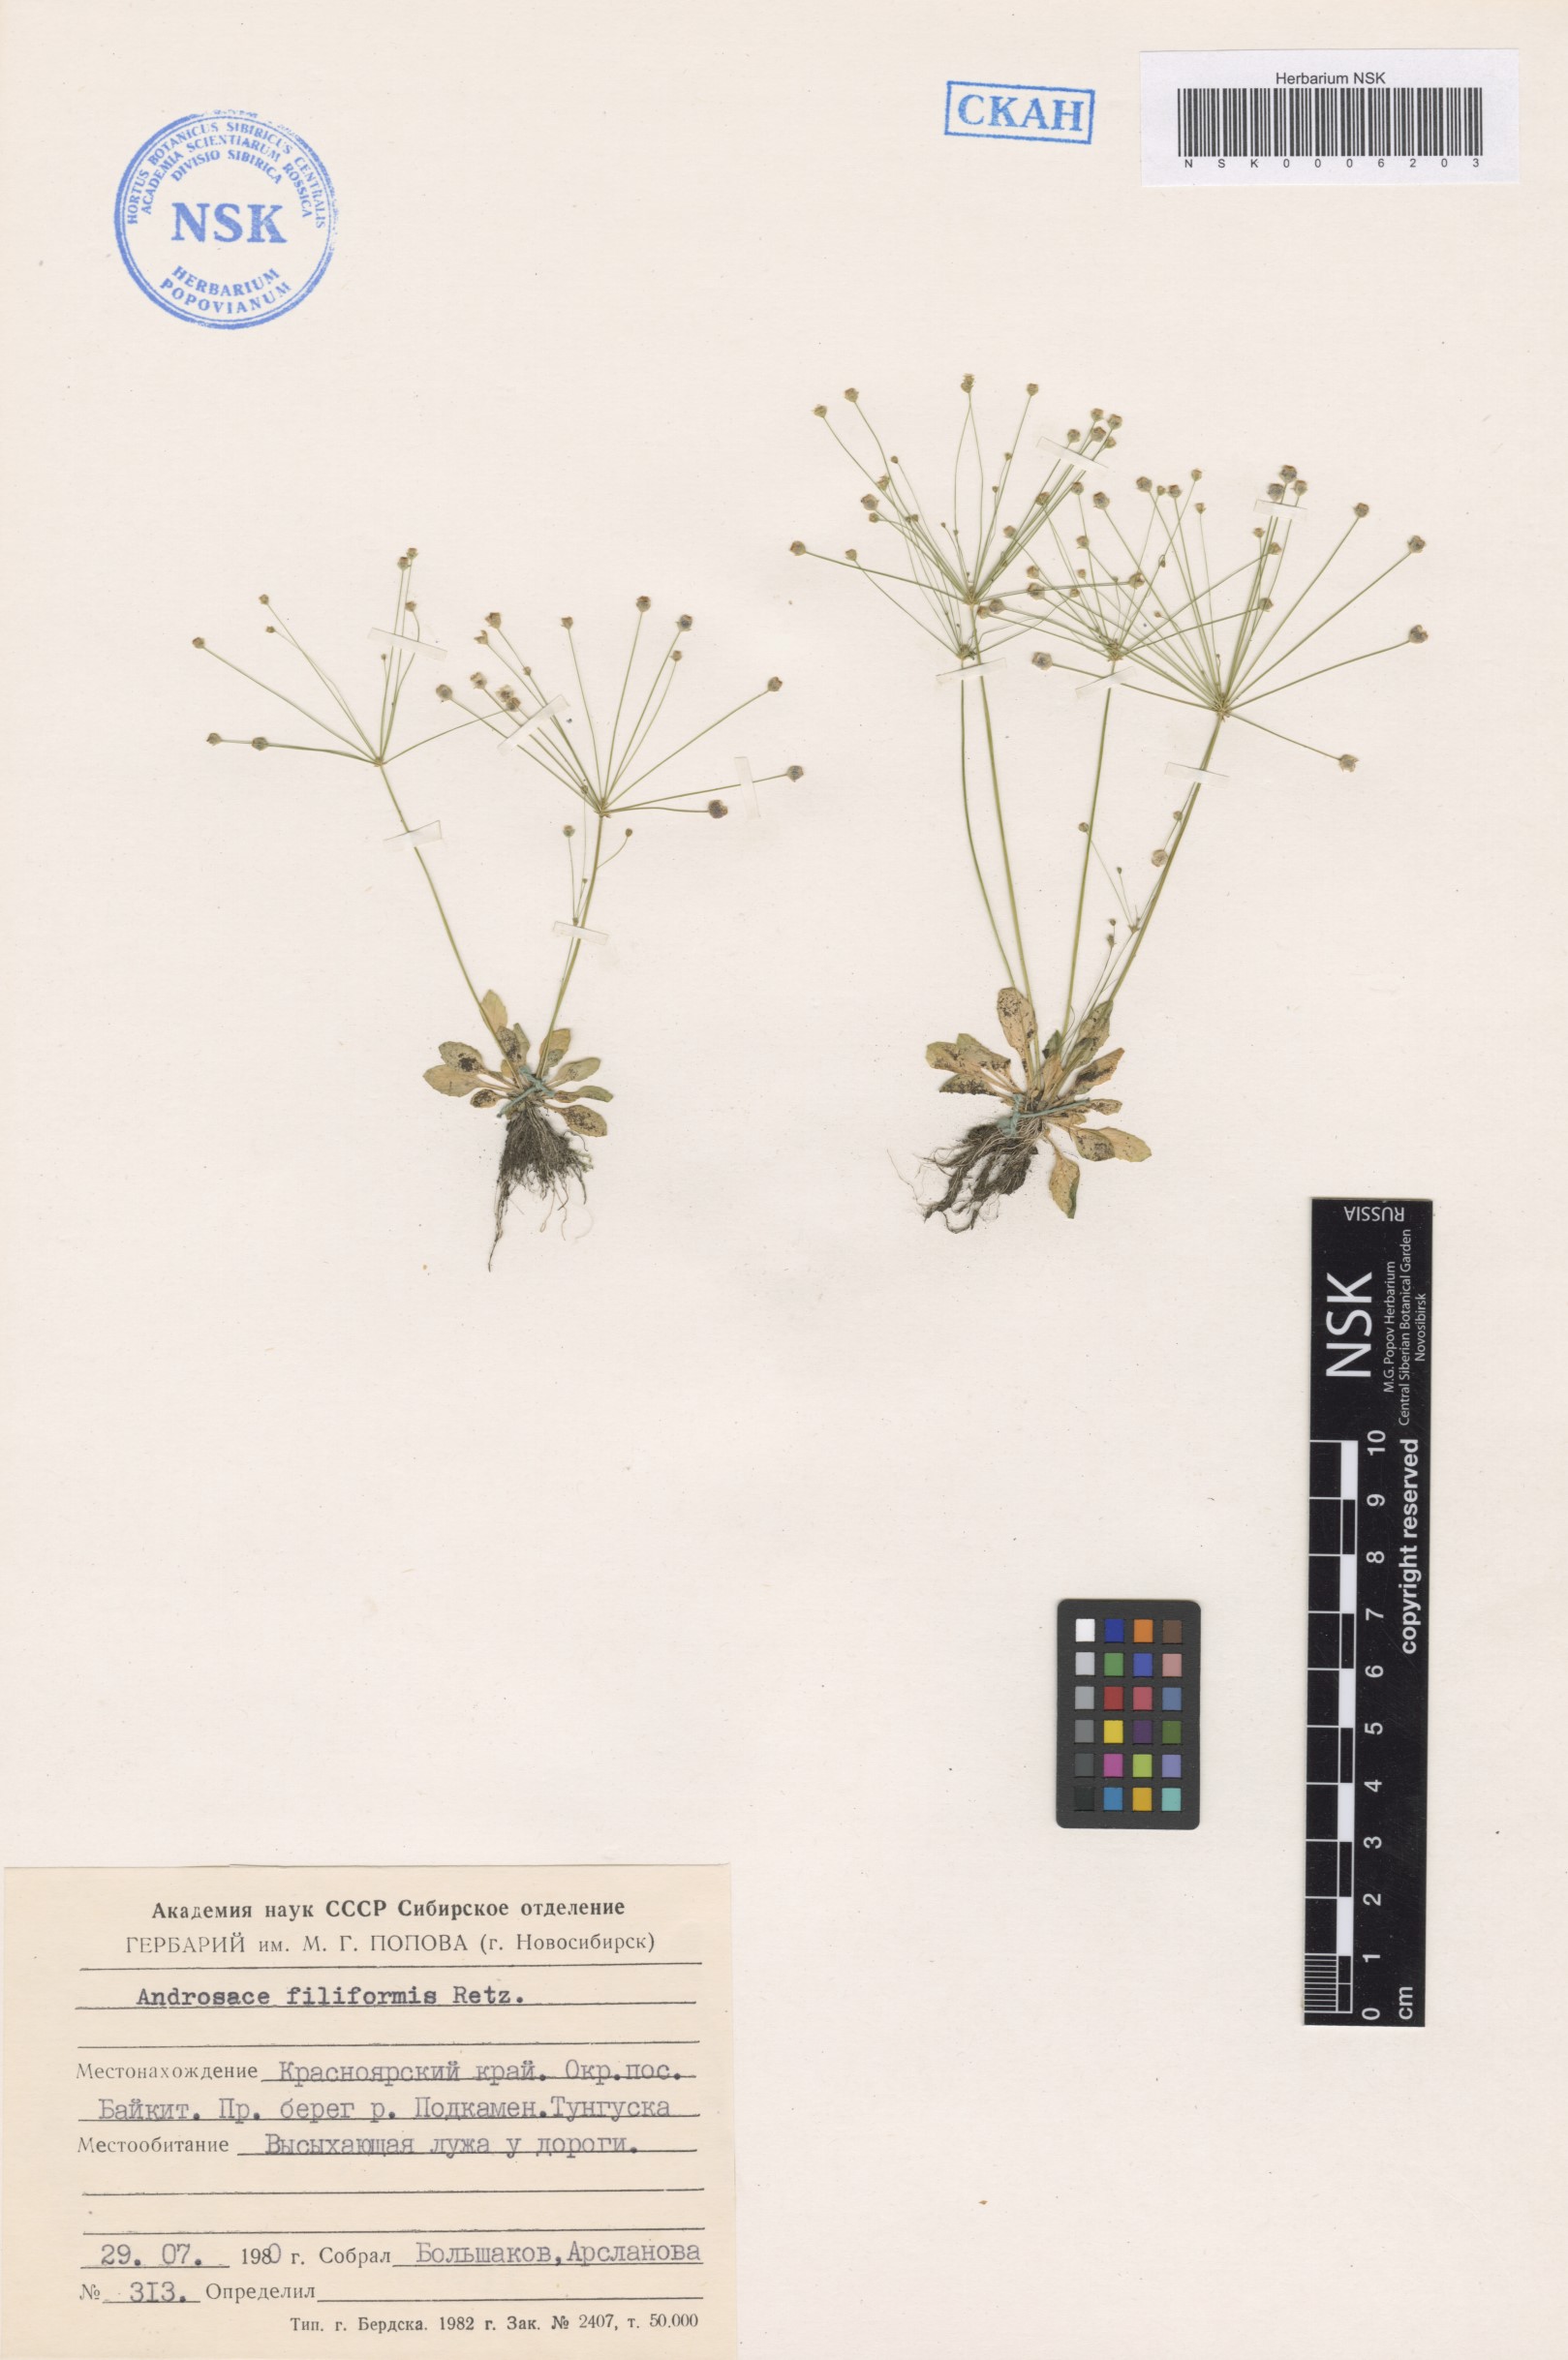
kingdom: Plantae
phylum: Tracheophyta
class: Magnoliopsida
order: Ericales
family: Primulaceae
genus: Androsace
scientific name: Androsace filiformis
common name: Filiform rock jasmine
